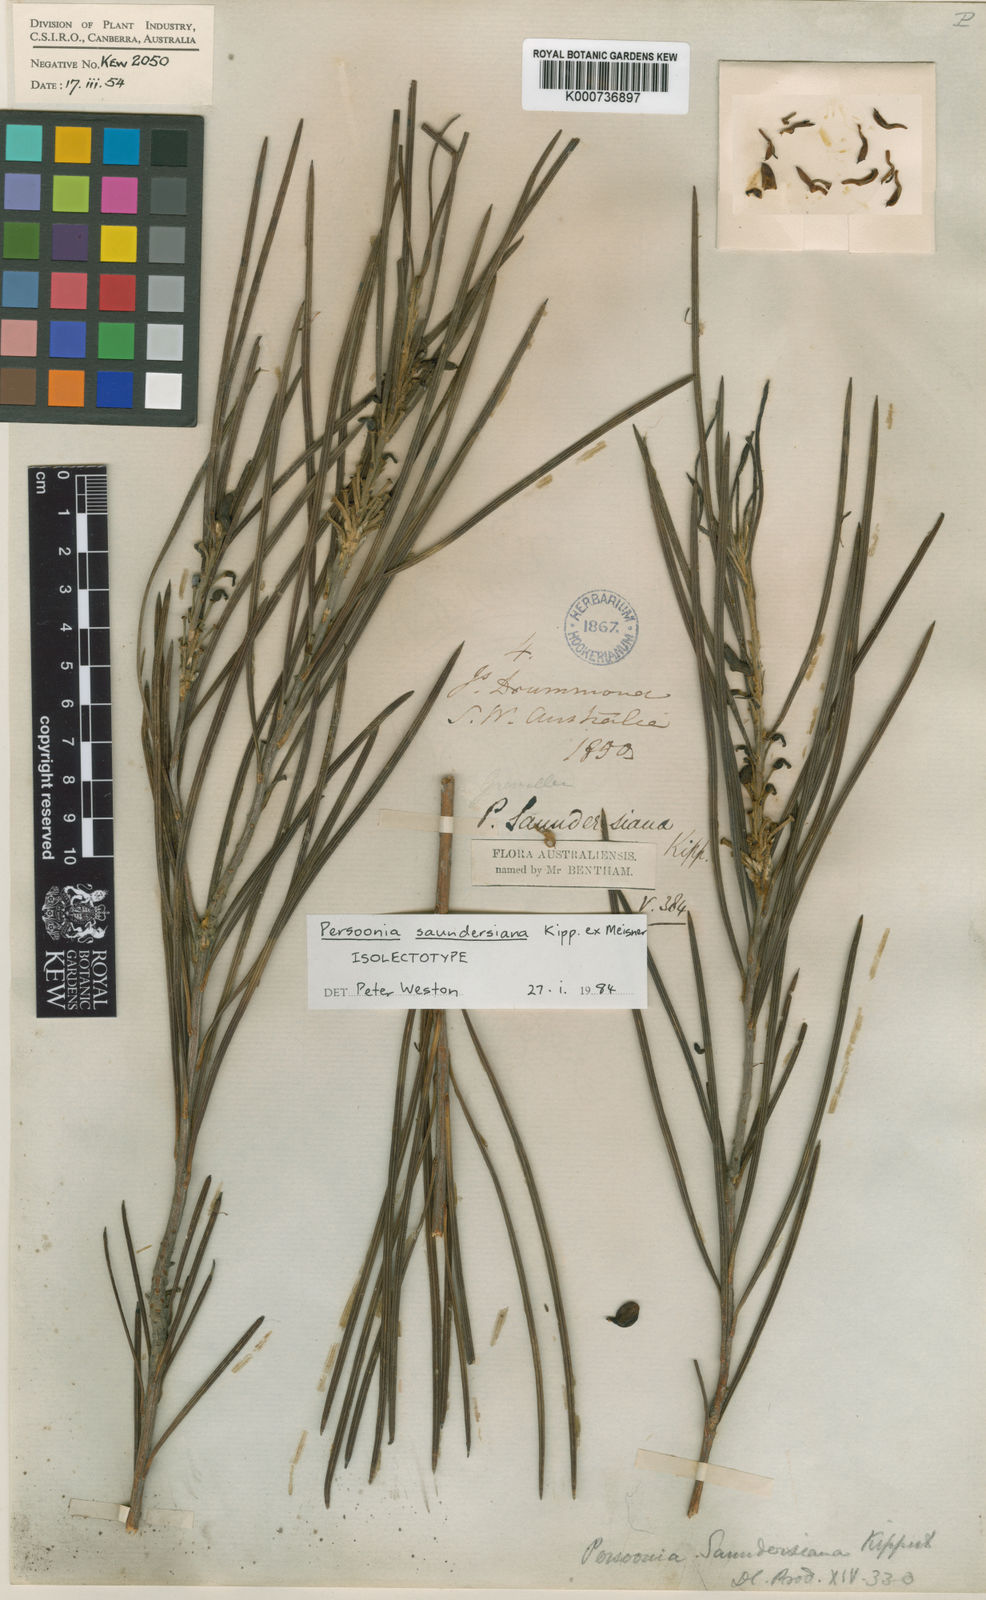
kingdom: Plantae
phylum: Tracheophyta
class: Magnoliopsida
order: Proteales
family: Proteaceae
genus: Persoonia
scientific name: Persoonia saundersiana
